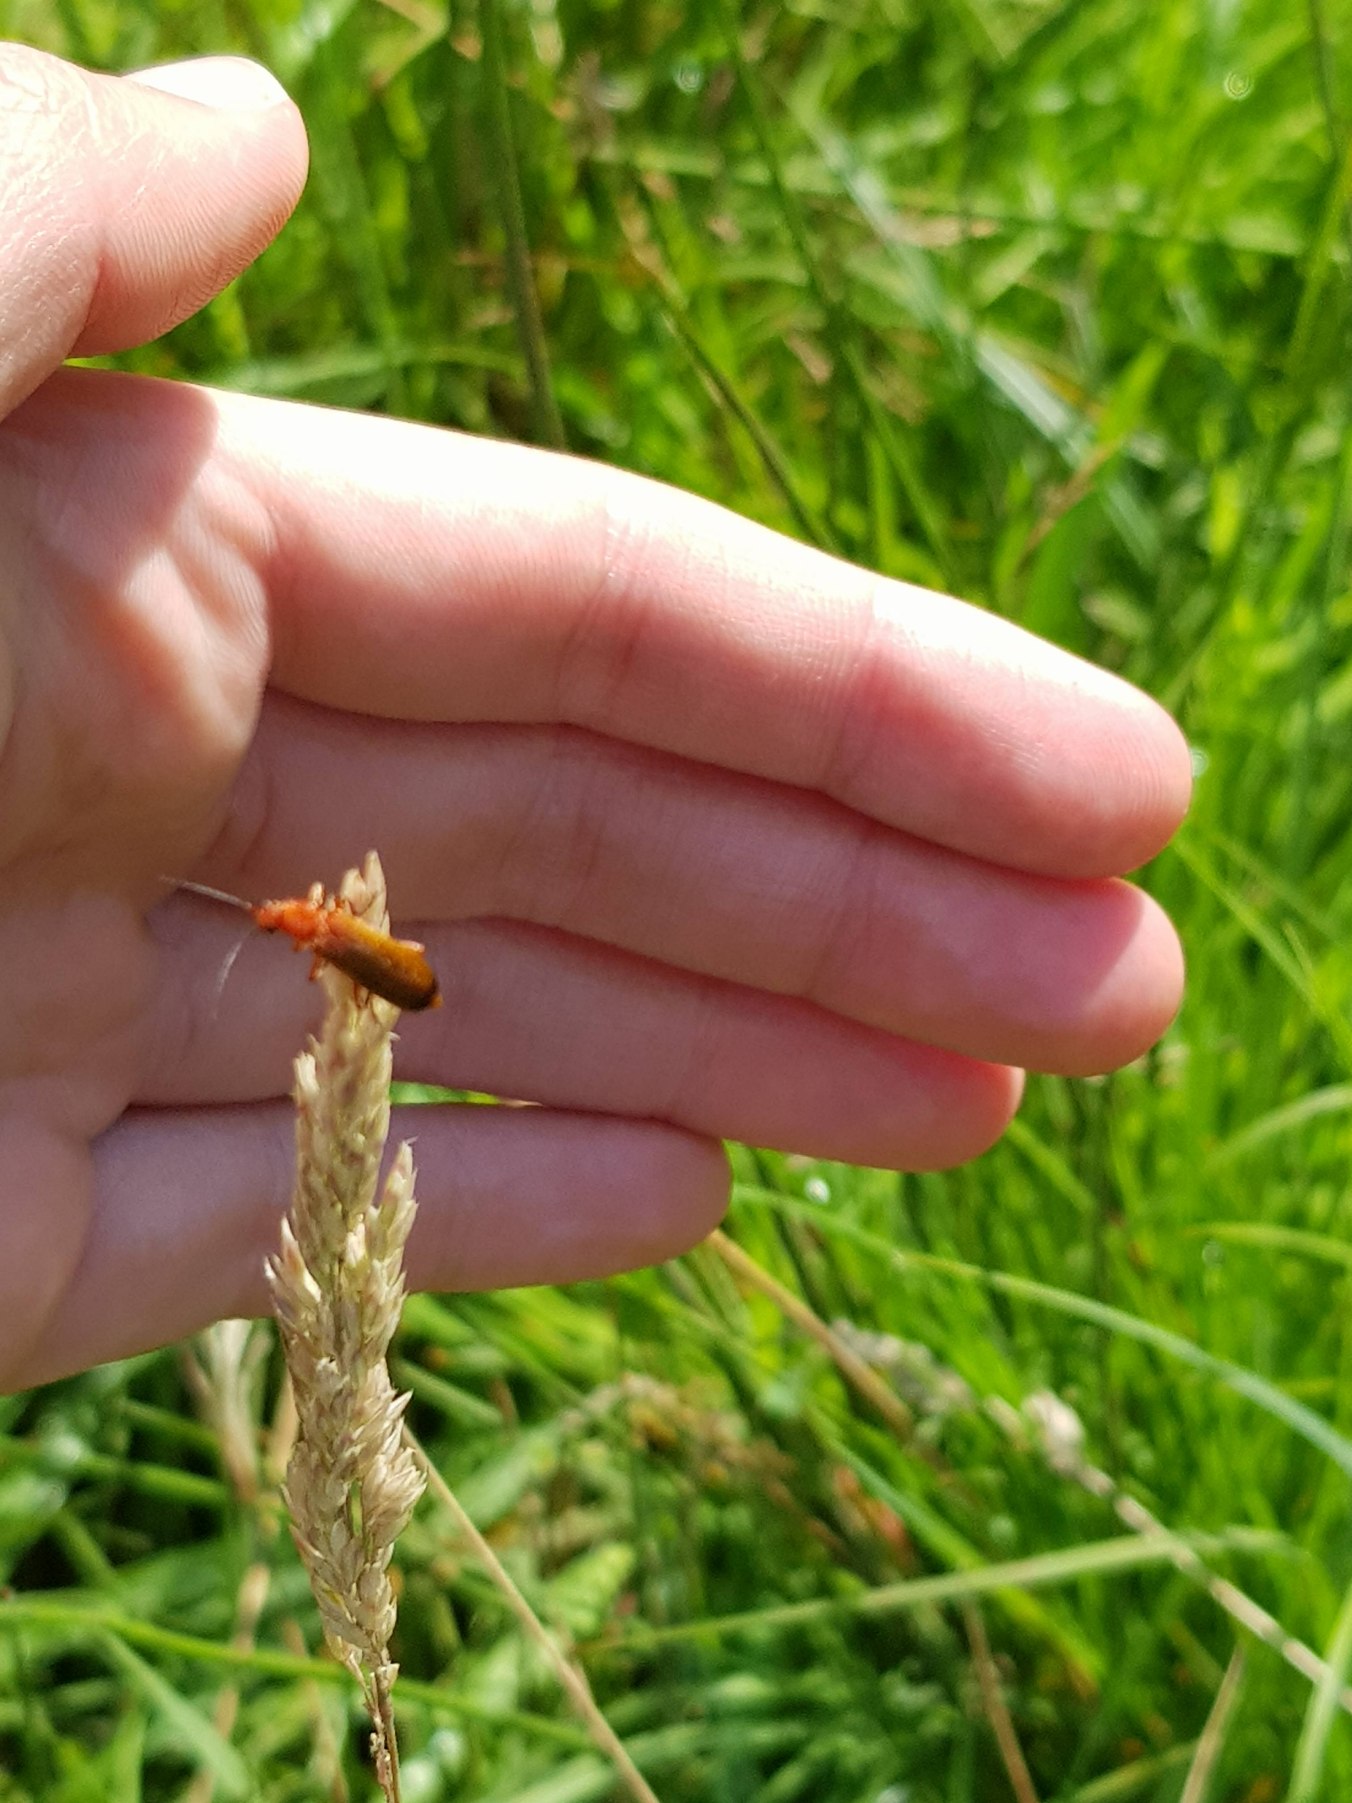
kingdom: Animalia
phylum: Arthropoda
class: Insecta
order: Coleoptera
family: Cantharidae
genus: Rhagonycha
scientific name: Rhagonycha fulva
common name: Præstebille
